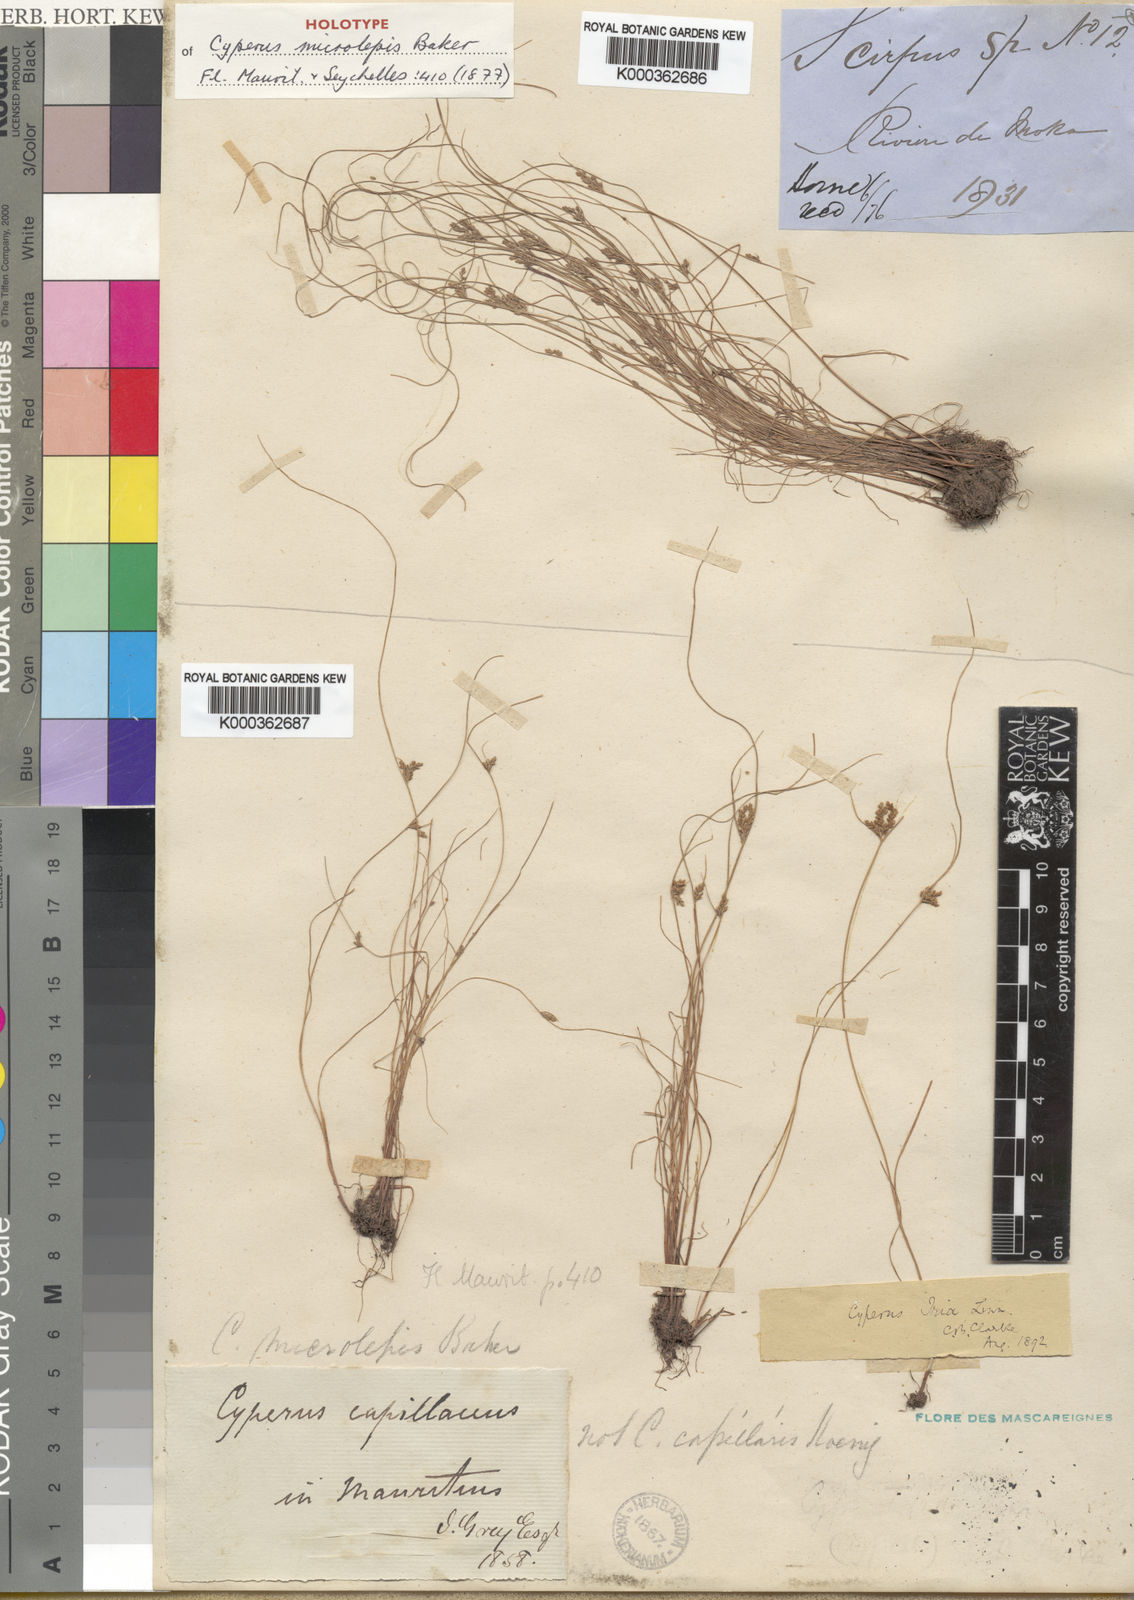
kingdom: Plantae
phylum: Tracheophyta
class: Liliopsida
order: Poales
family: Cyperaceae
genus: Cyperus
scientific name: Cyperus
